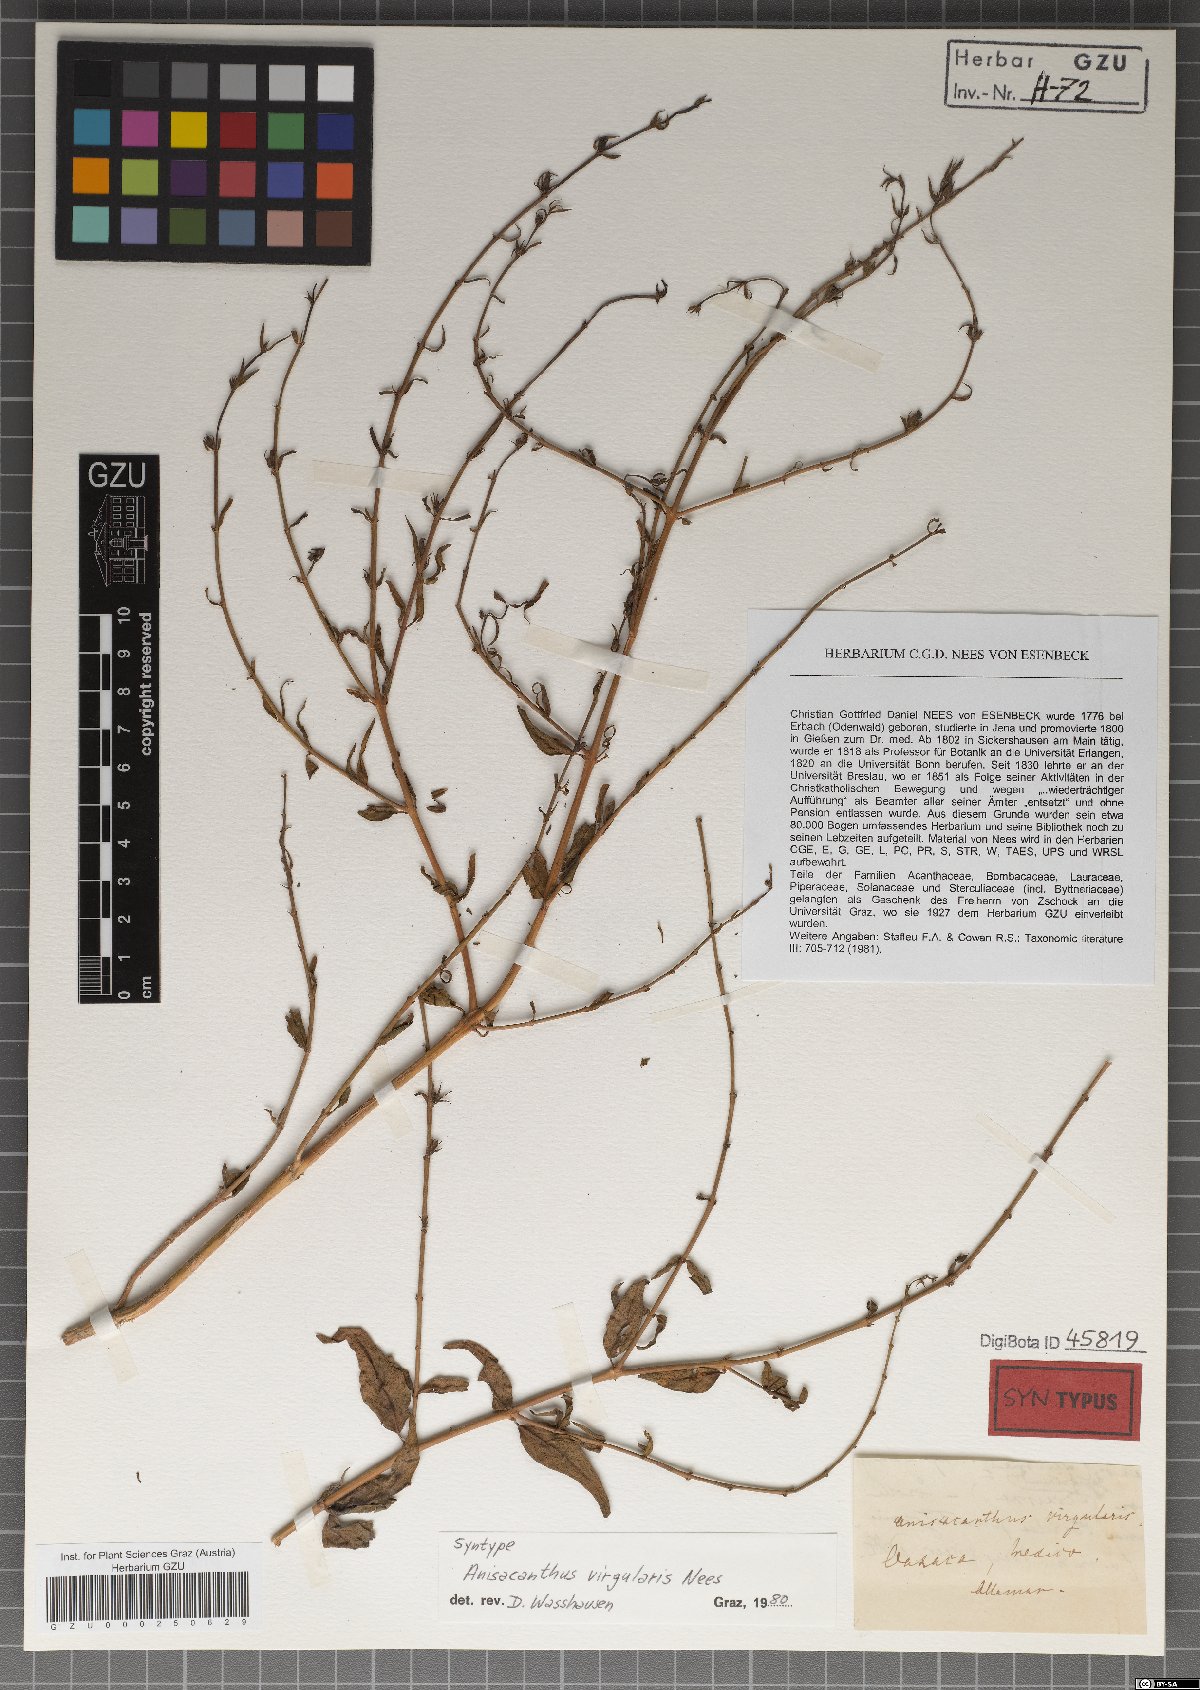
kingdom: Plantae
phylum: Tracheophyta
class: Magnoliopsida
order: Lamiales
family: Acanthaceae
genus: Anisacanthus
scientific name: Anisacanthus quadrifidus
